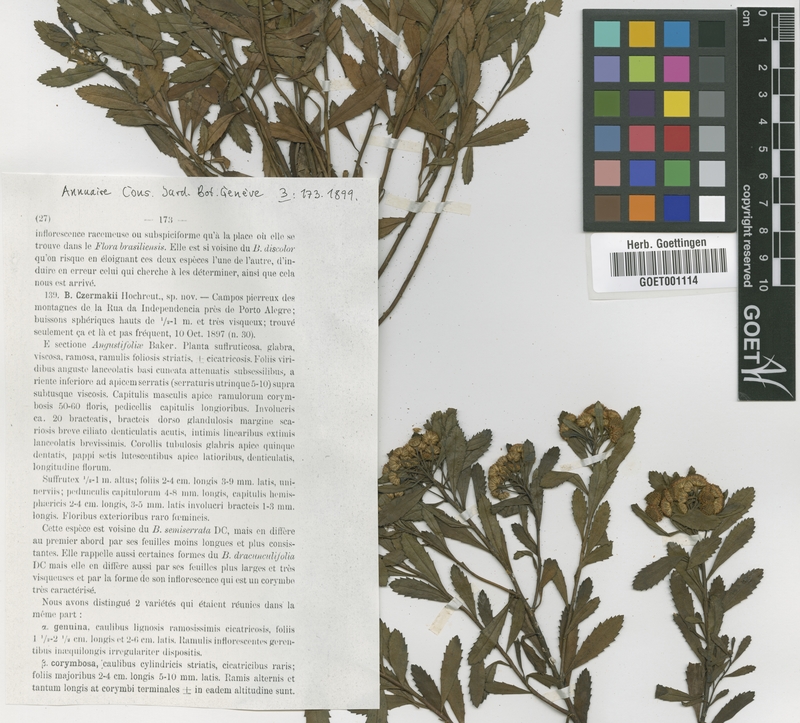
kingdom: Plantae
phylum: Tracheophyta
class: Magnoliopsida
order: Asterales
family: Asteraceae
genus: Baccharis
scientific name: Baccharis psiadioides
